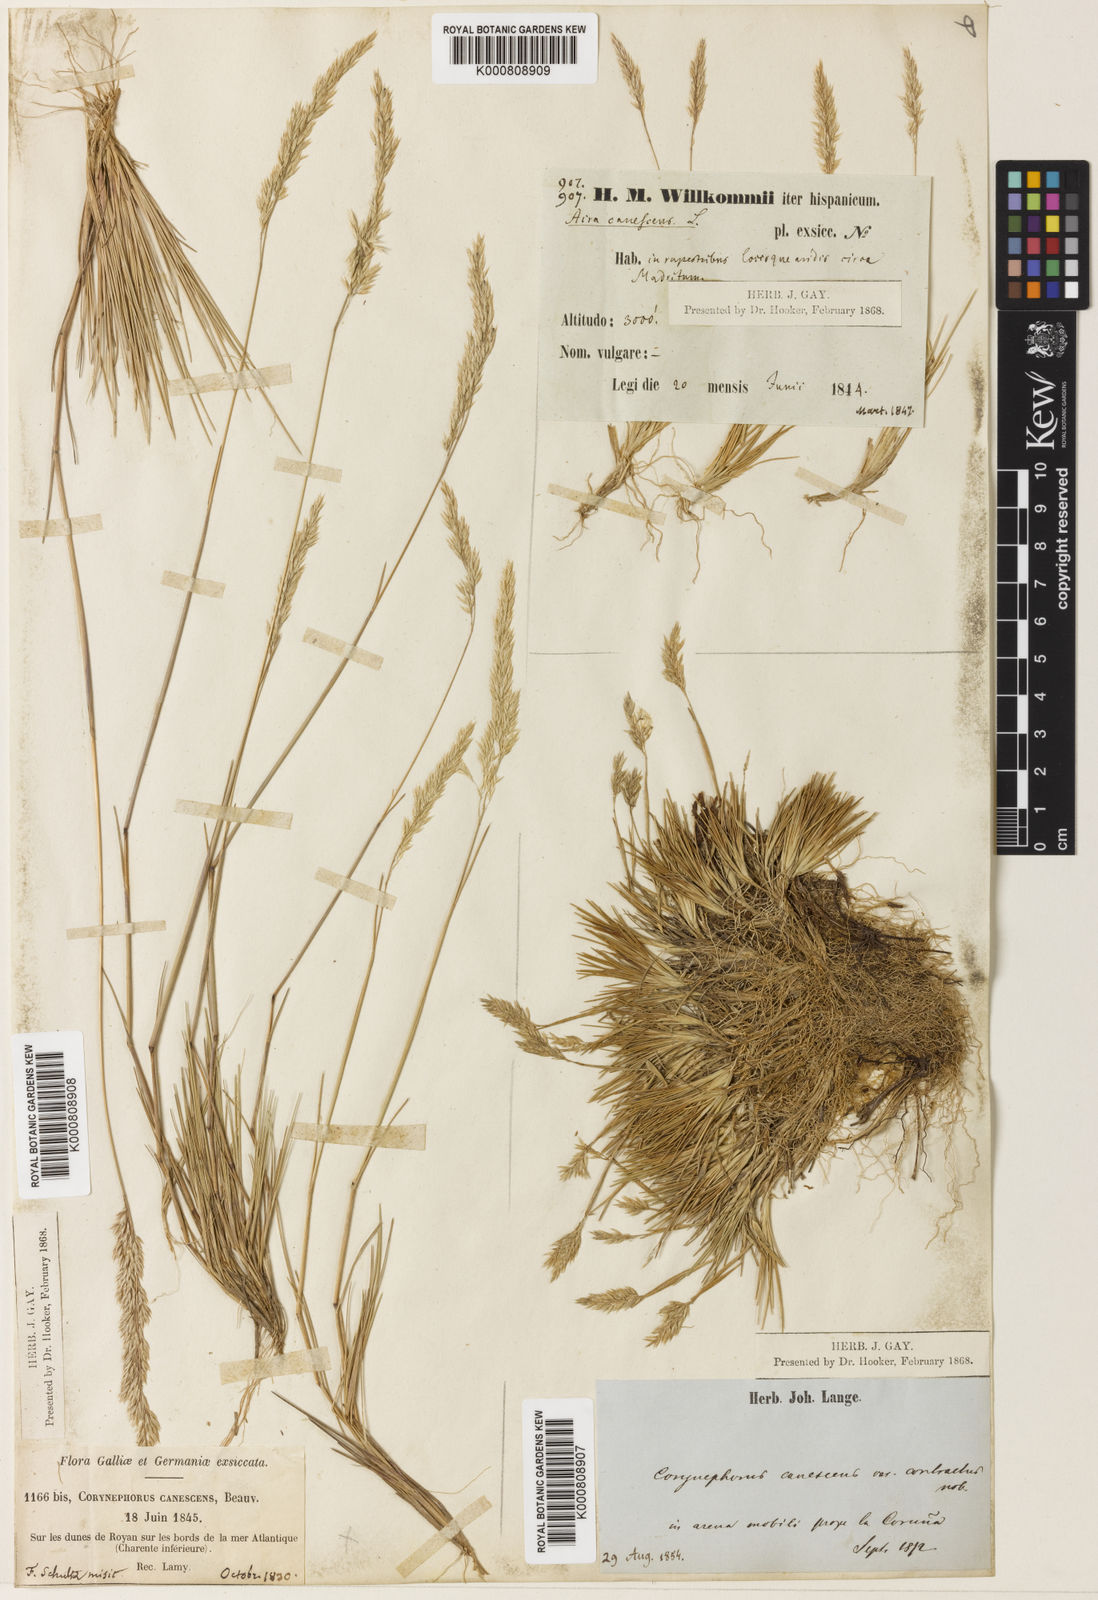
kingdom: Plantae
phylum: Tracheophyta
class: Liliopsida
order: Poales
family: Poaceae
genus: Corynephorus
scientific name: Corynephorus canescens
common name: Grey hair-grass
